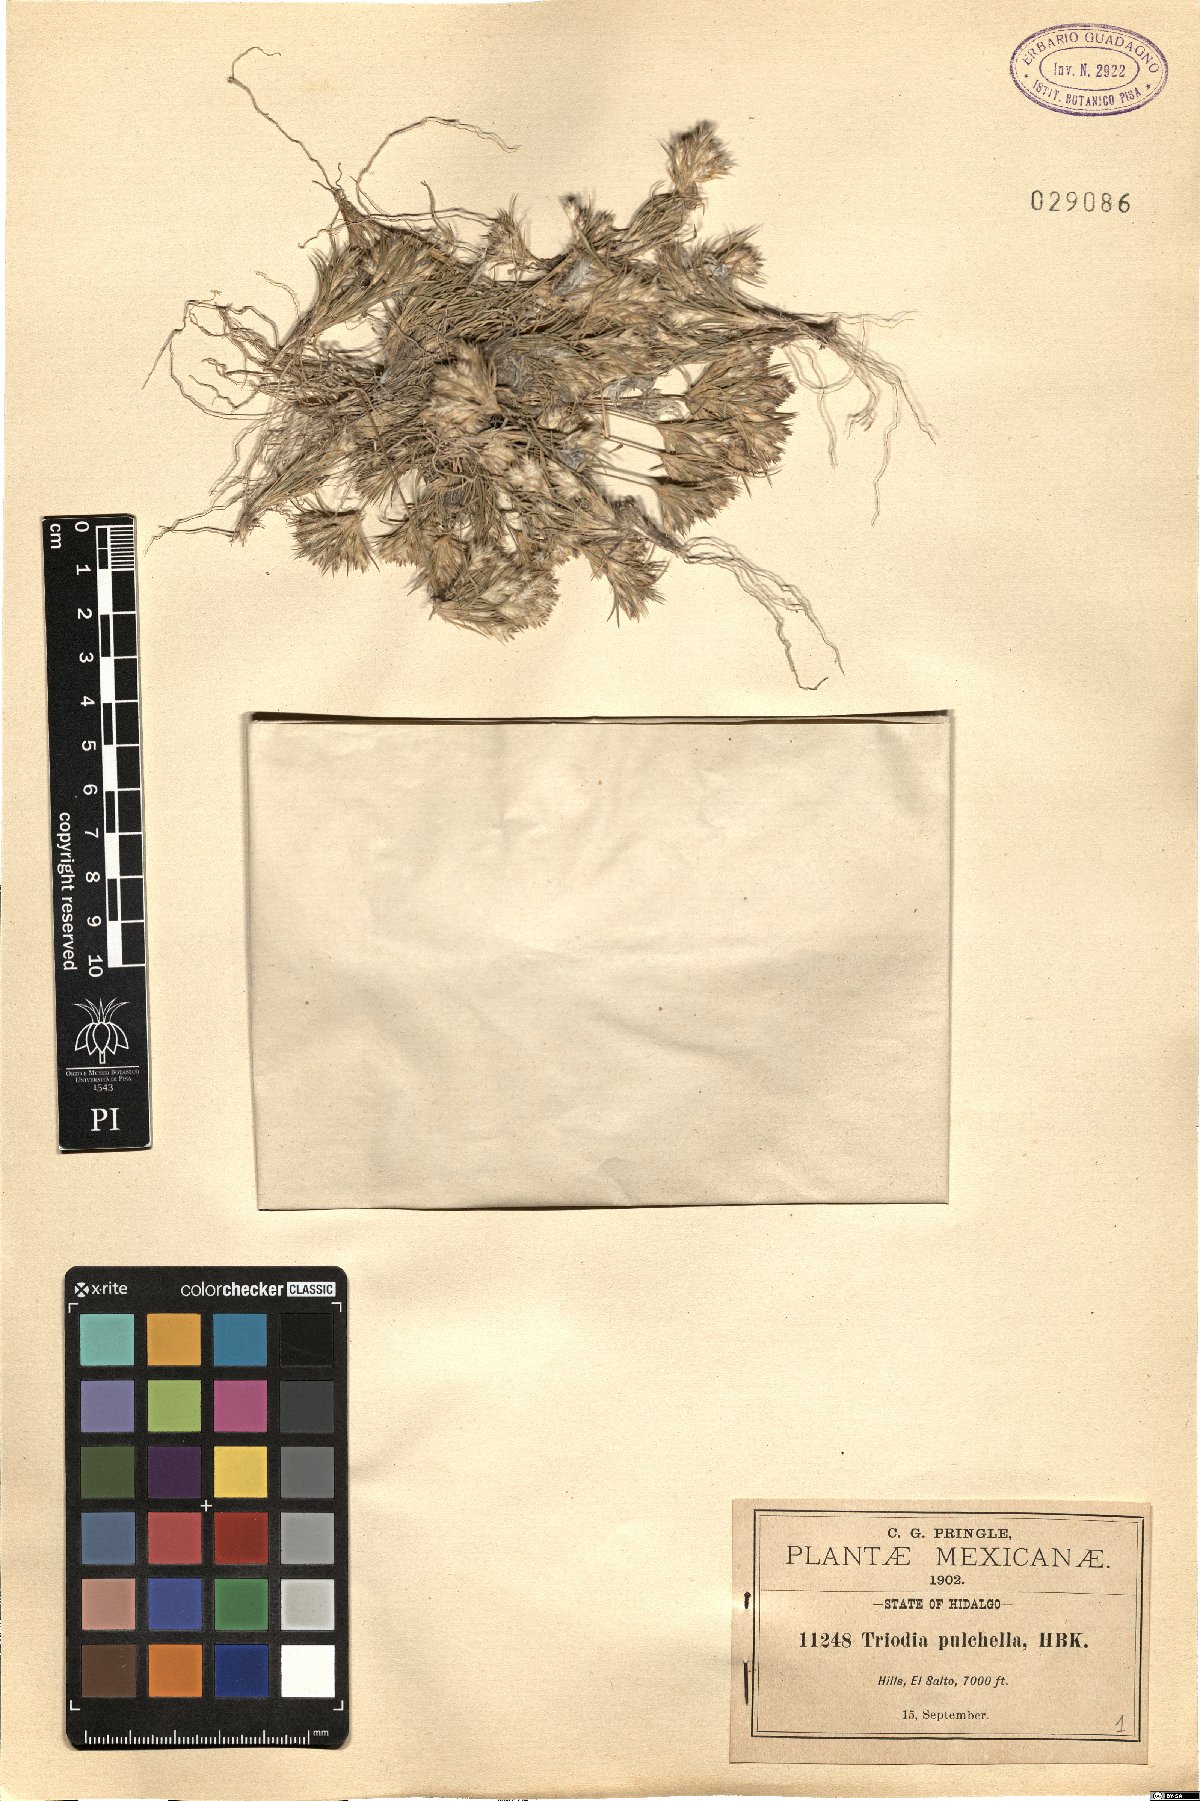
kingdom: Plantae
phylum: Tracheophyta
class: Liliopsida
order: Poales
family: Poaceae
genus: Munroa
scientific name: Munroa pulchella
